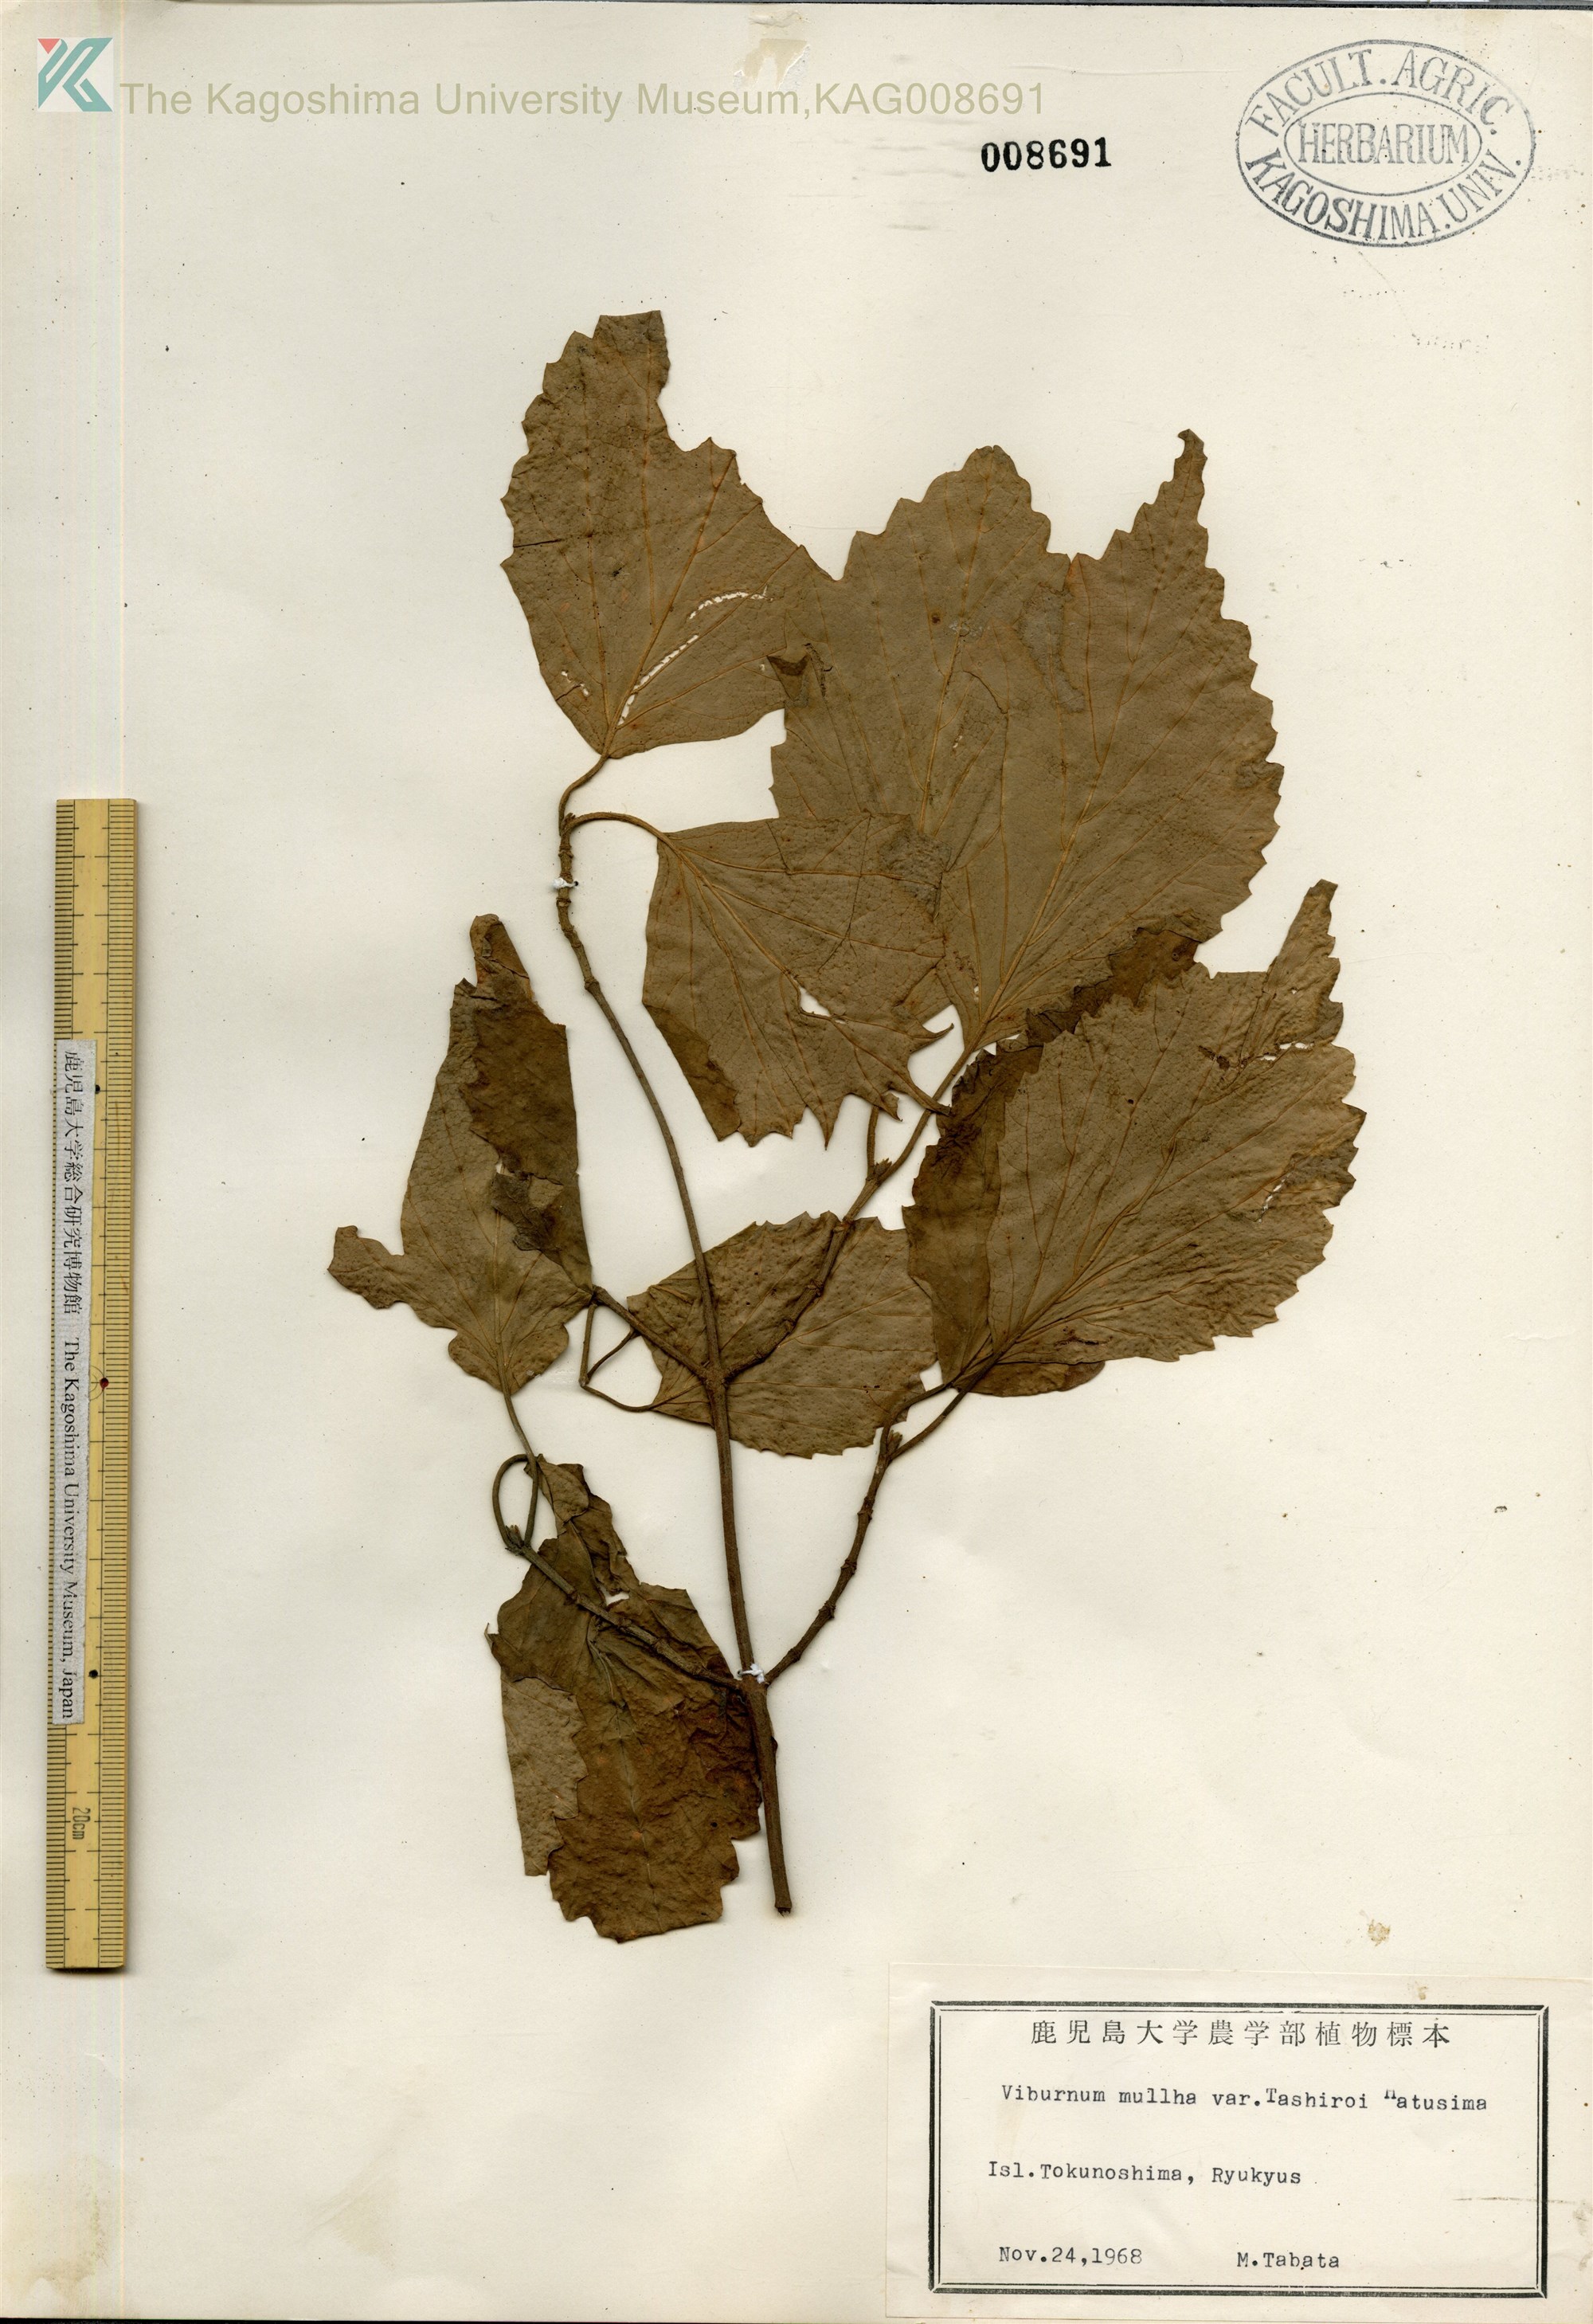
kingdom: Plantae
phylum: Tracheophyta
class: Magnoliopsida
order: Dipsacales
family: Viburnaceae
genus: Viburnum
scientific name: Viburnum luzonicum
